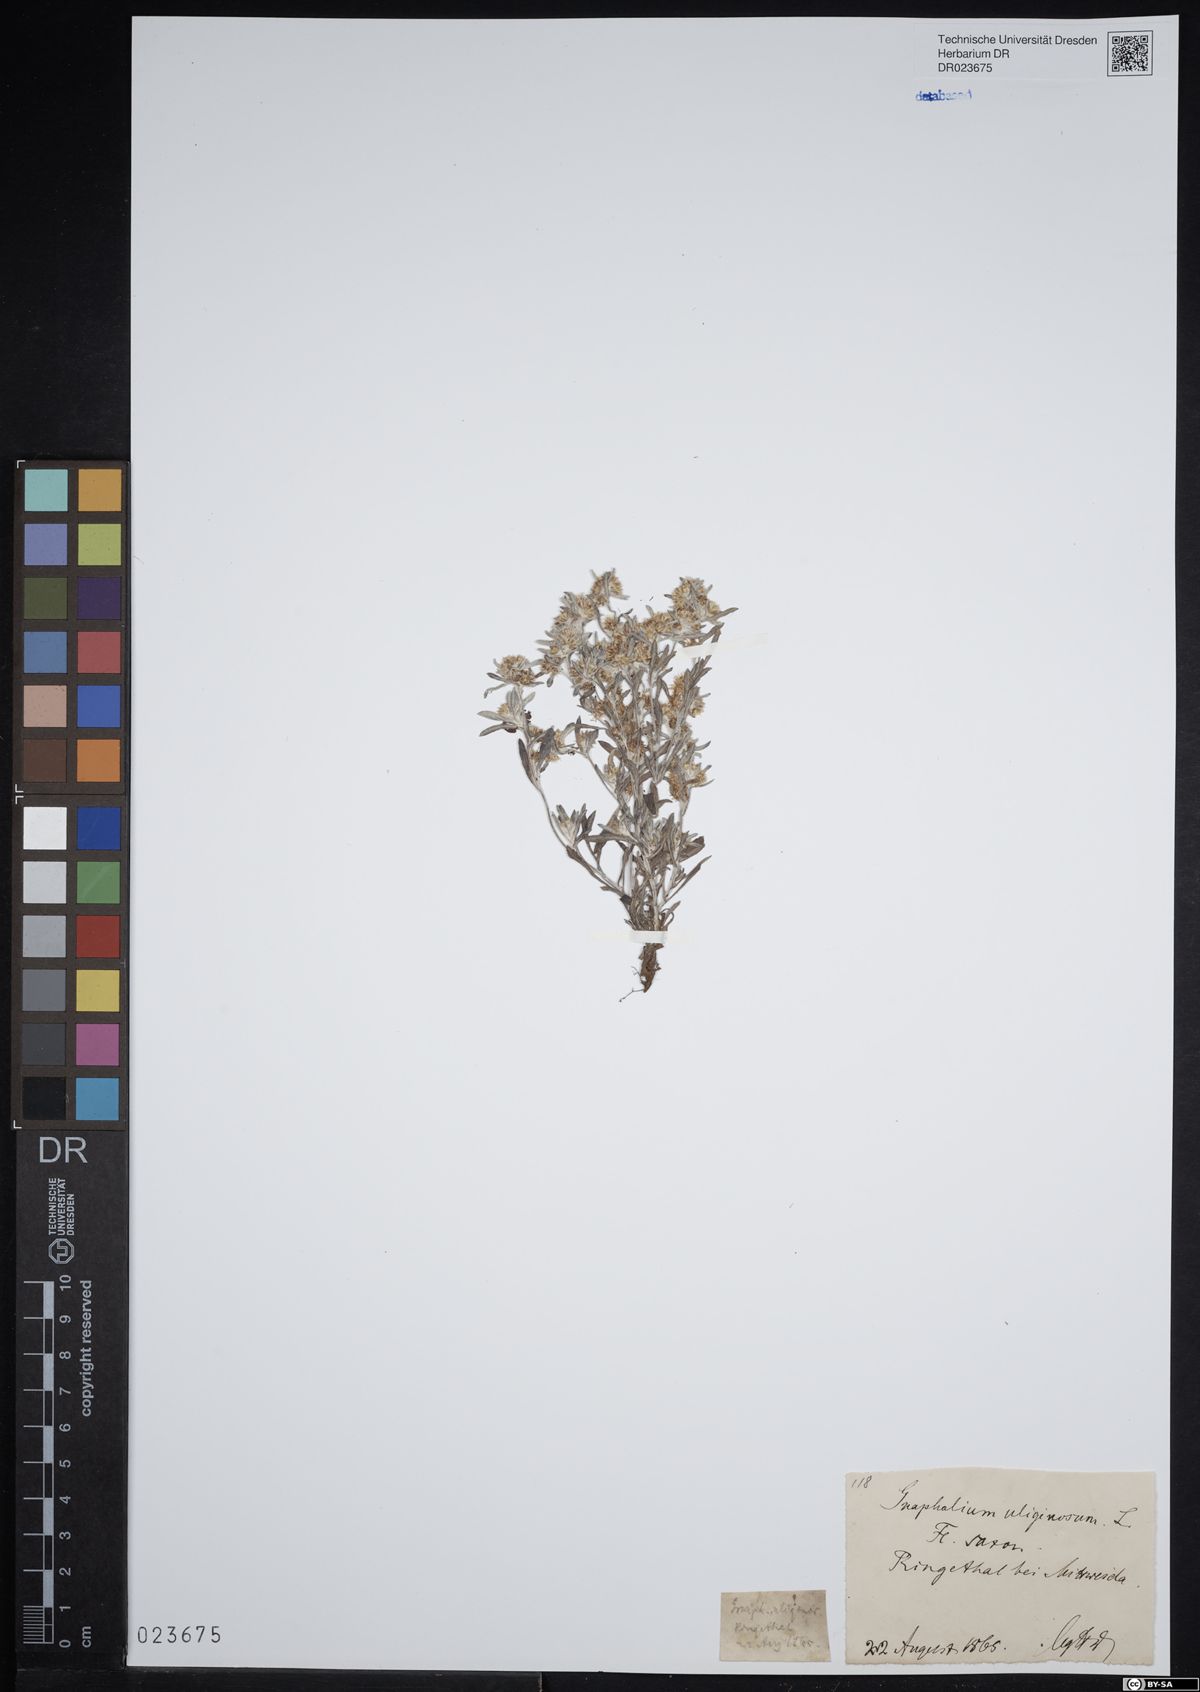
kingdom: Plantae
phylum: Tracheophyta
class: Magnoliopsida
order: Asterales
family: Asteraceae
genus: Gnaphalium
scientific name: Gnaphalium uliginosum
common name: Marsh cudweed
